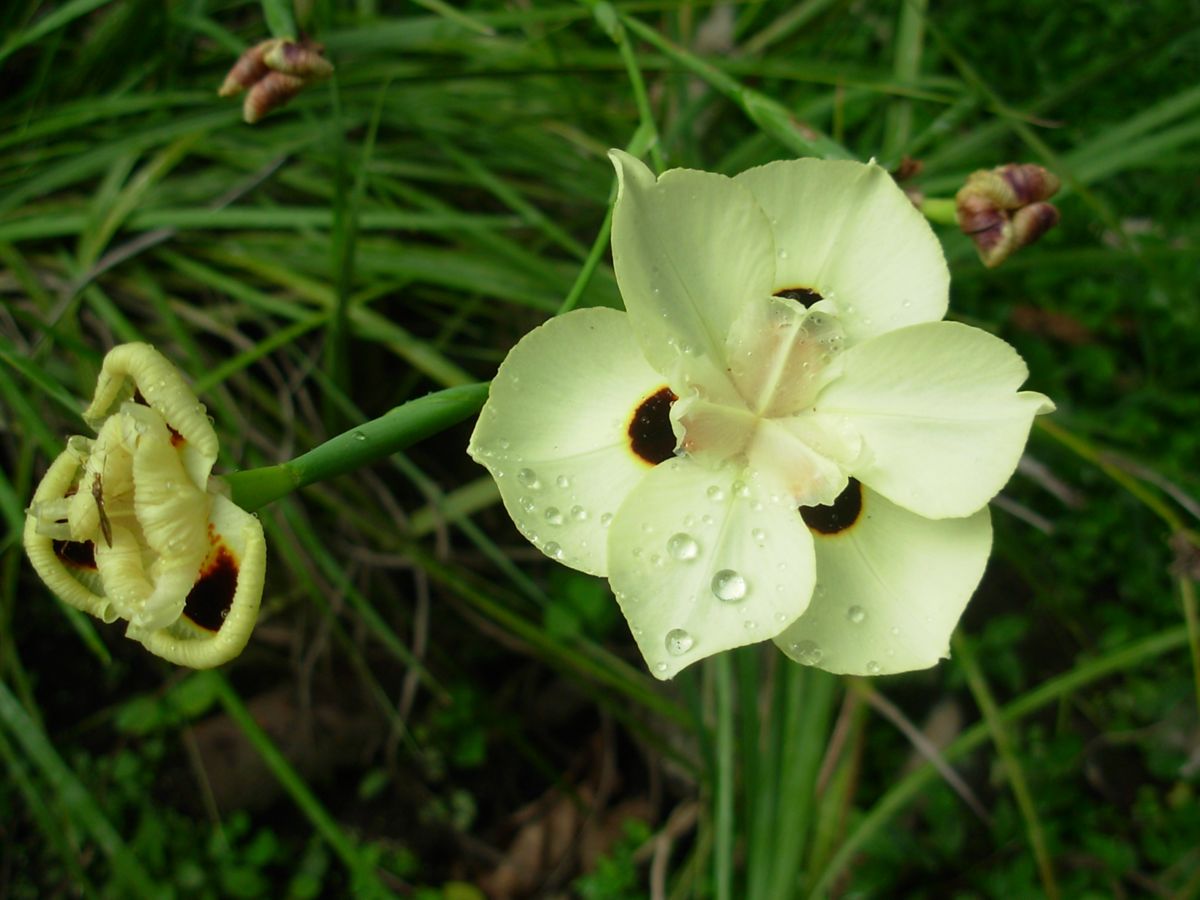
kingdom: Plantae
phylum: Tracheophyta
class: Liliopsida
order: Asparagales
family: Iridaceae
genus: Dietes
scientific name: Dietes bicolor
